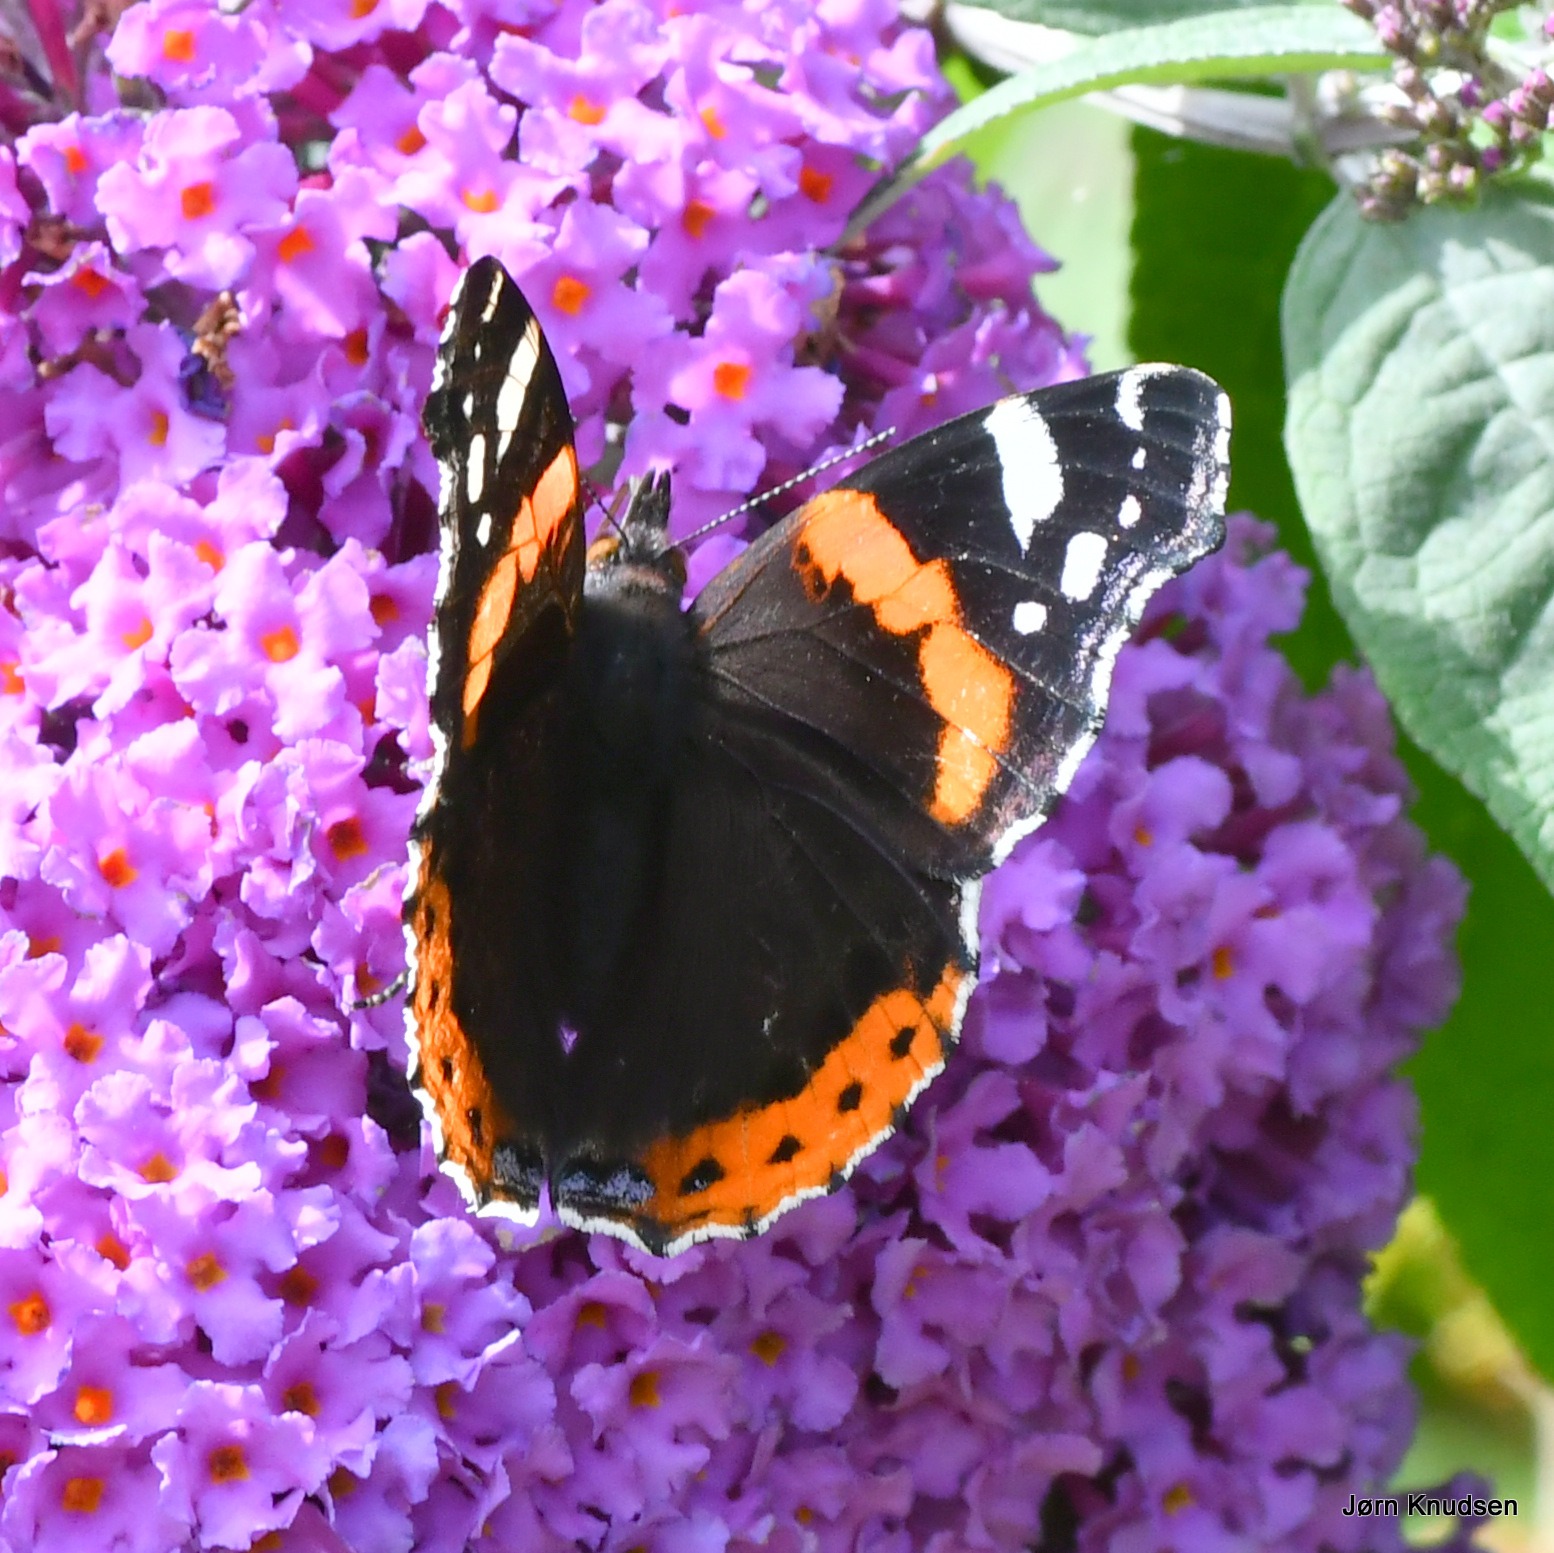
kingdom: Animalia
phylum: Arthropoda
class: Insecta
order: Lepidoptera
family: Nymphalidae
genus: Vanessa
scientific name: Vanessa atalanta
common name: Admiral
